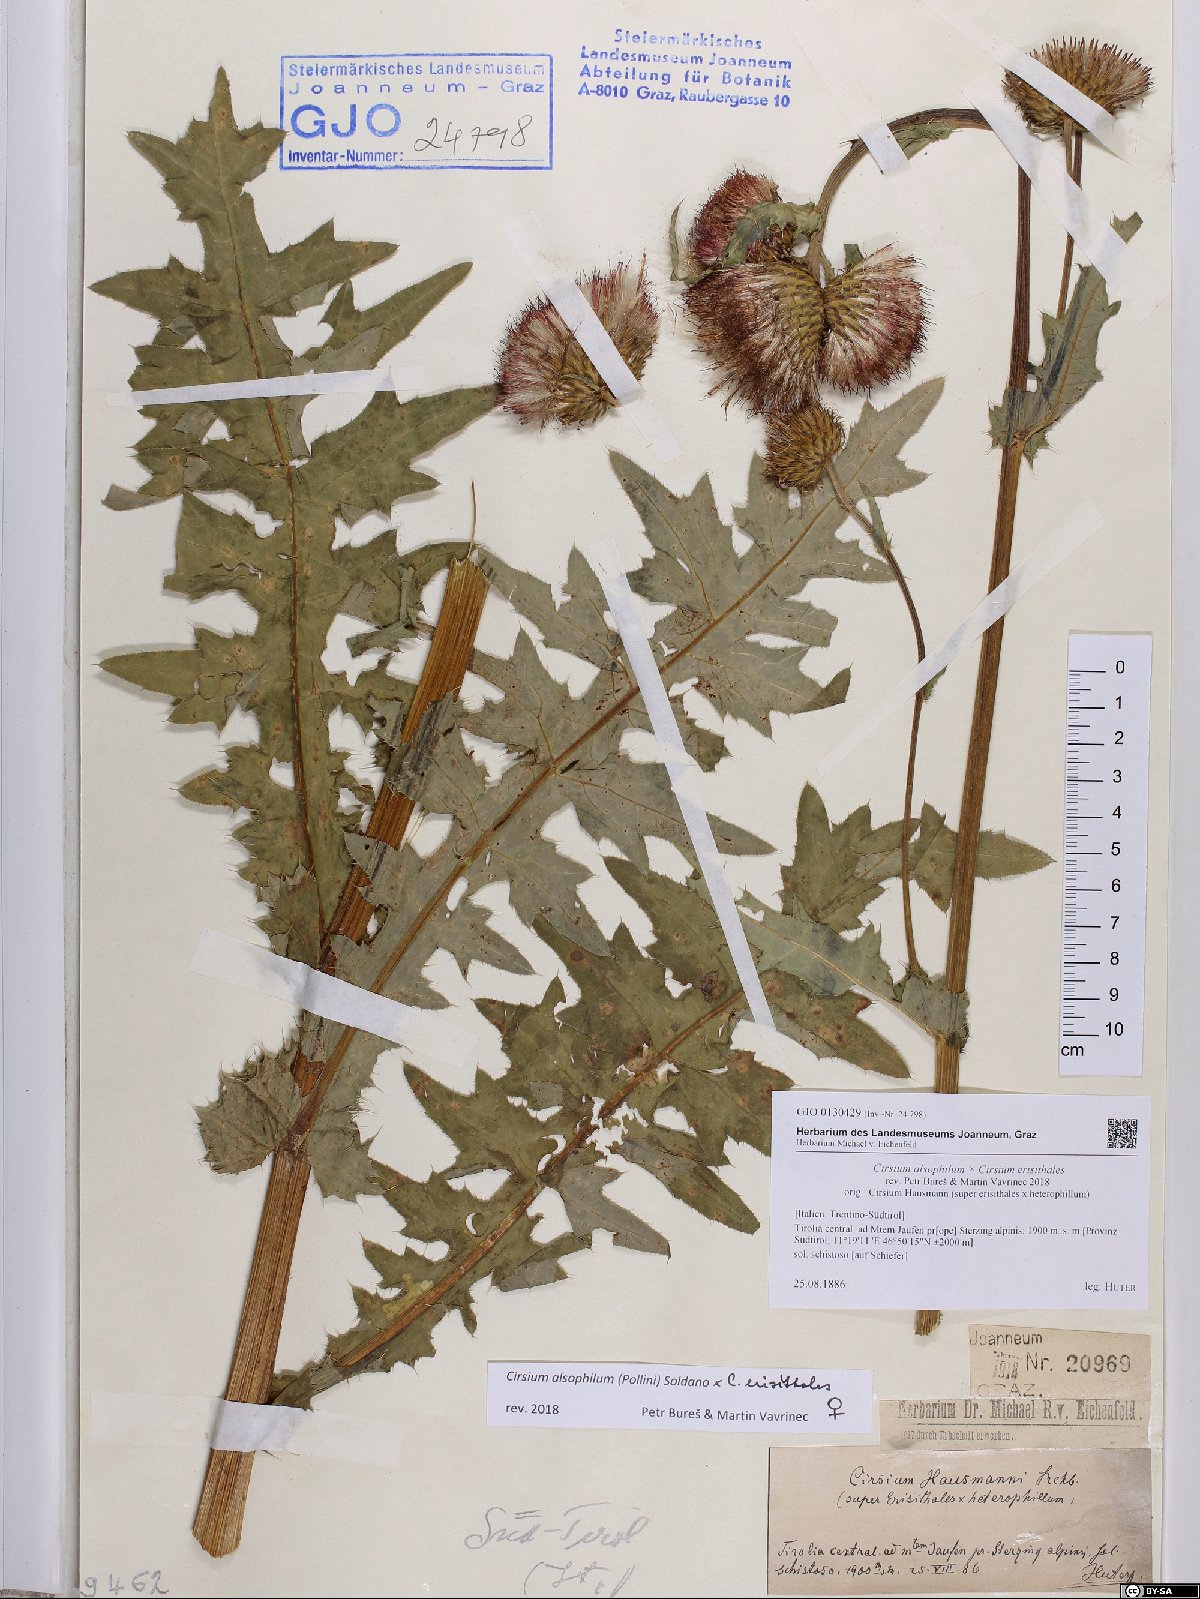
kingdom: Plantae
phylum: Tracheophyta
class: Magnoliopsida
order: Asterales
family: Asteraceae
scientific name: Asteraceae
